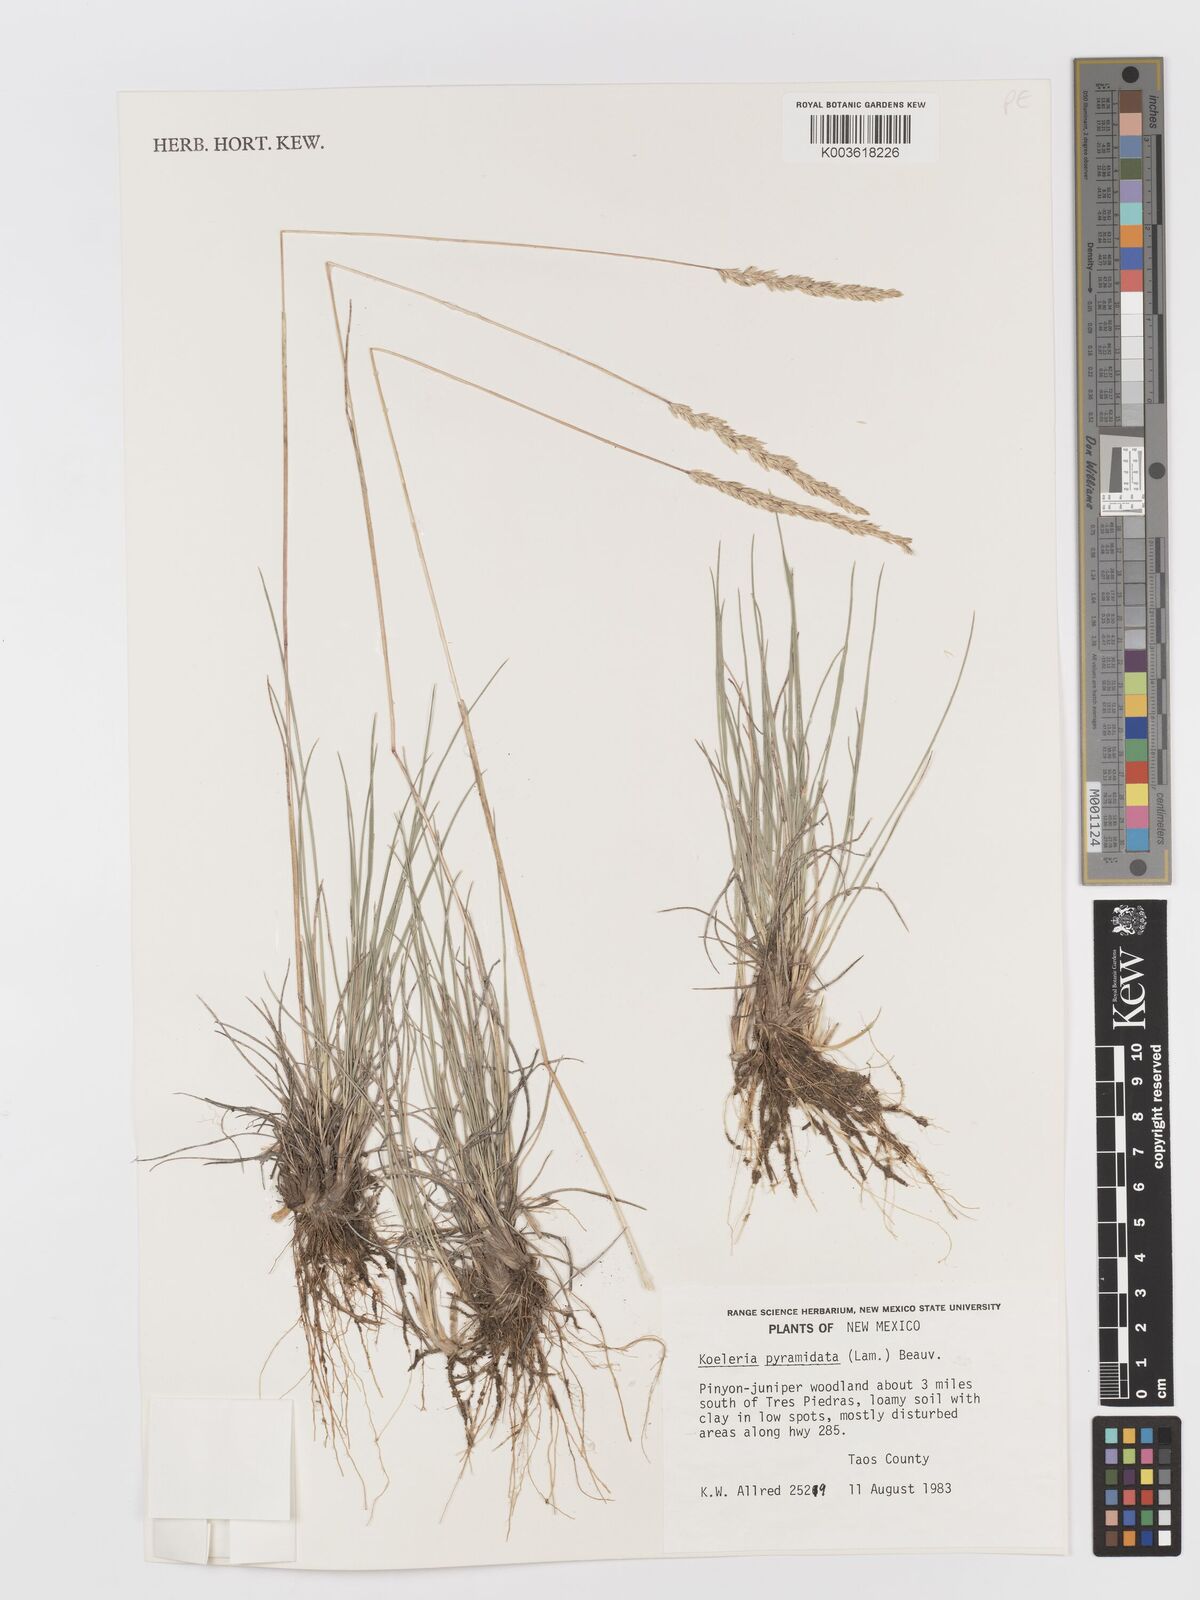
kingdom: Plantae
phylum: Tracheophyta
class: Liliopsida
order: Poales
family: Poaceae
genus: Koeleria
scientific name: Koeleria macrantha
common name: Crested hair-grass
